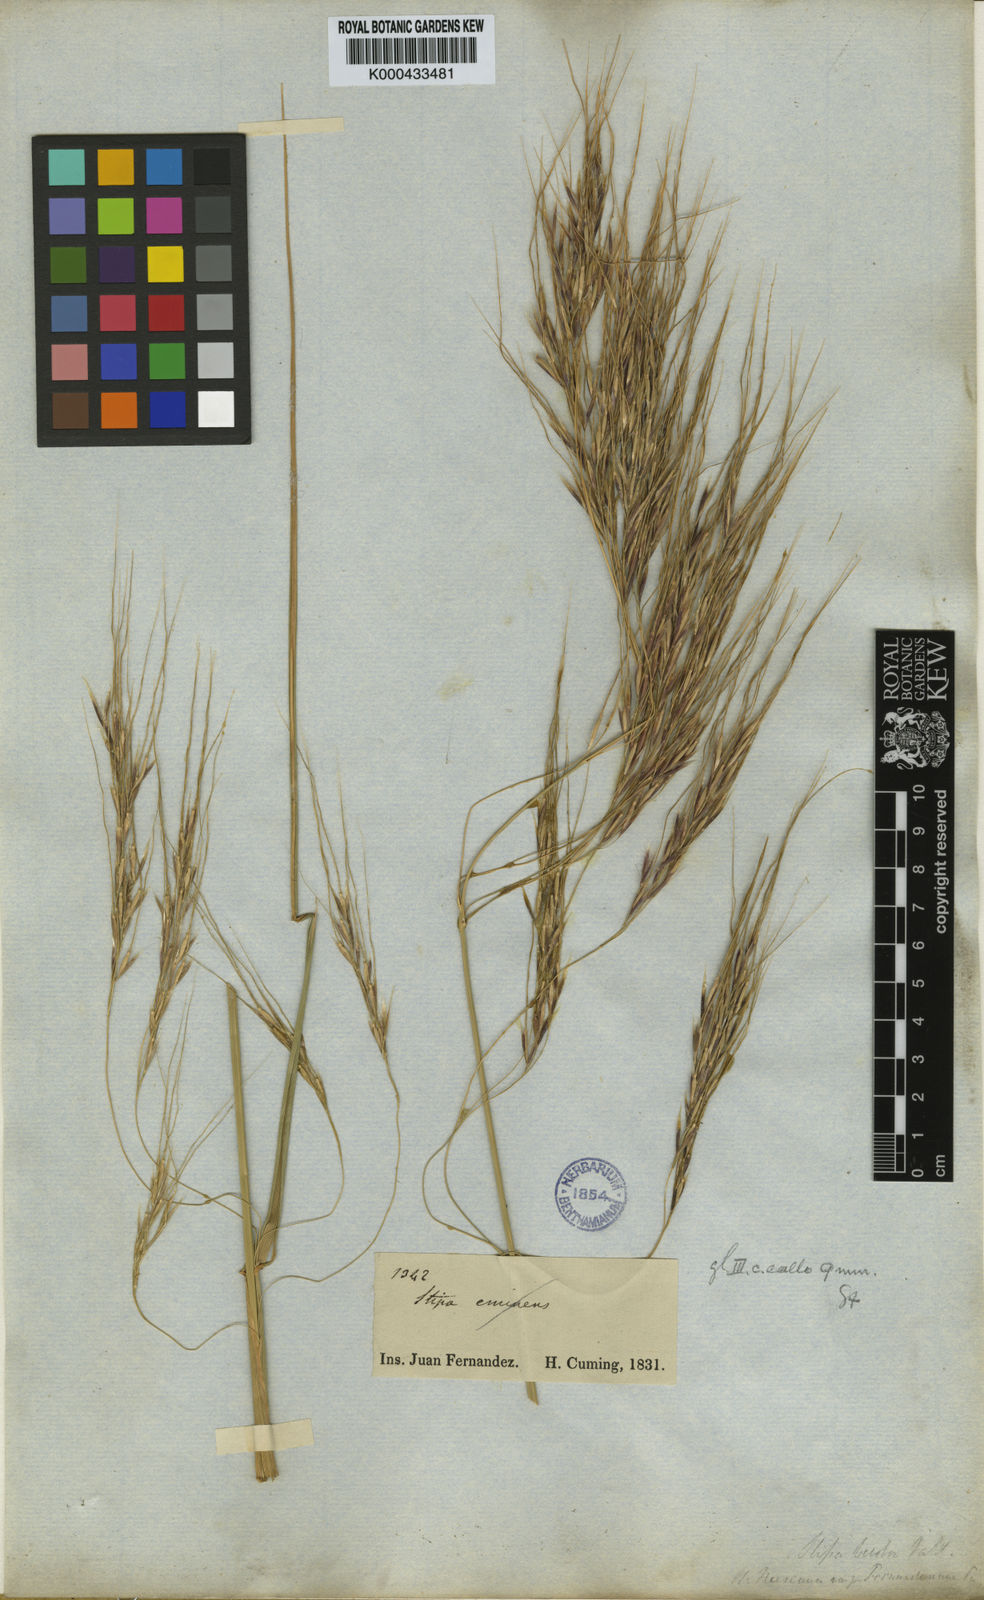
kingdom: Plantae
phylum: Tracheophyta
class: Liliopsida
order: Poales
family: Poaceae
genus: Nassella
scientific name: Nassella neesiana
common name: American needle-grass
